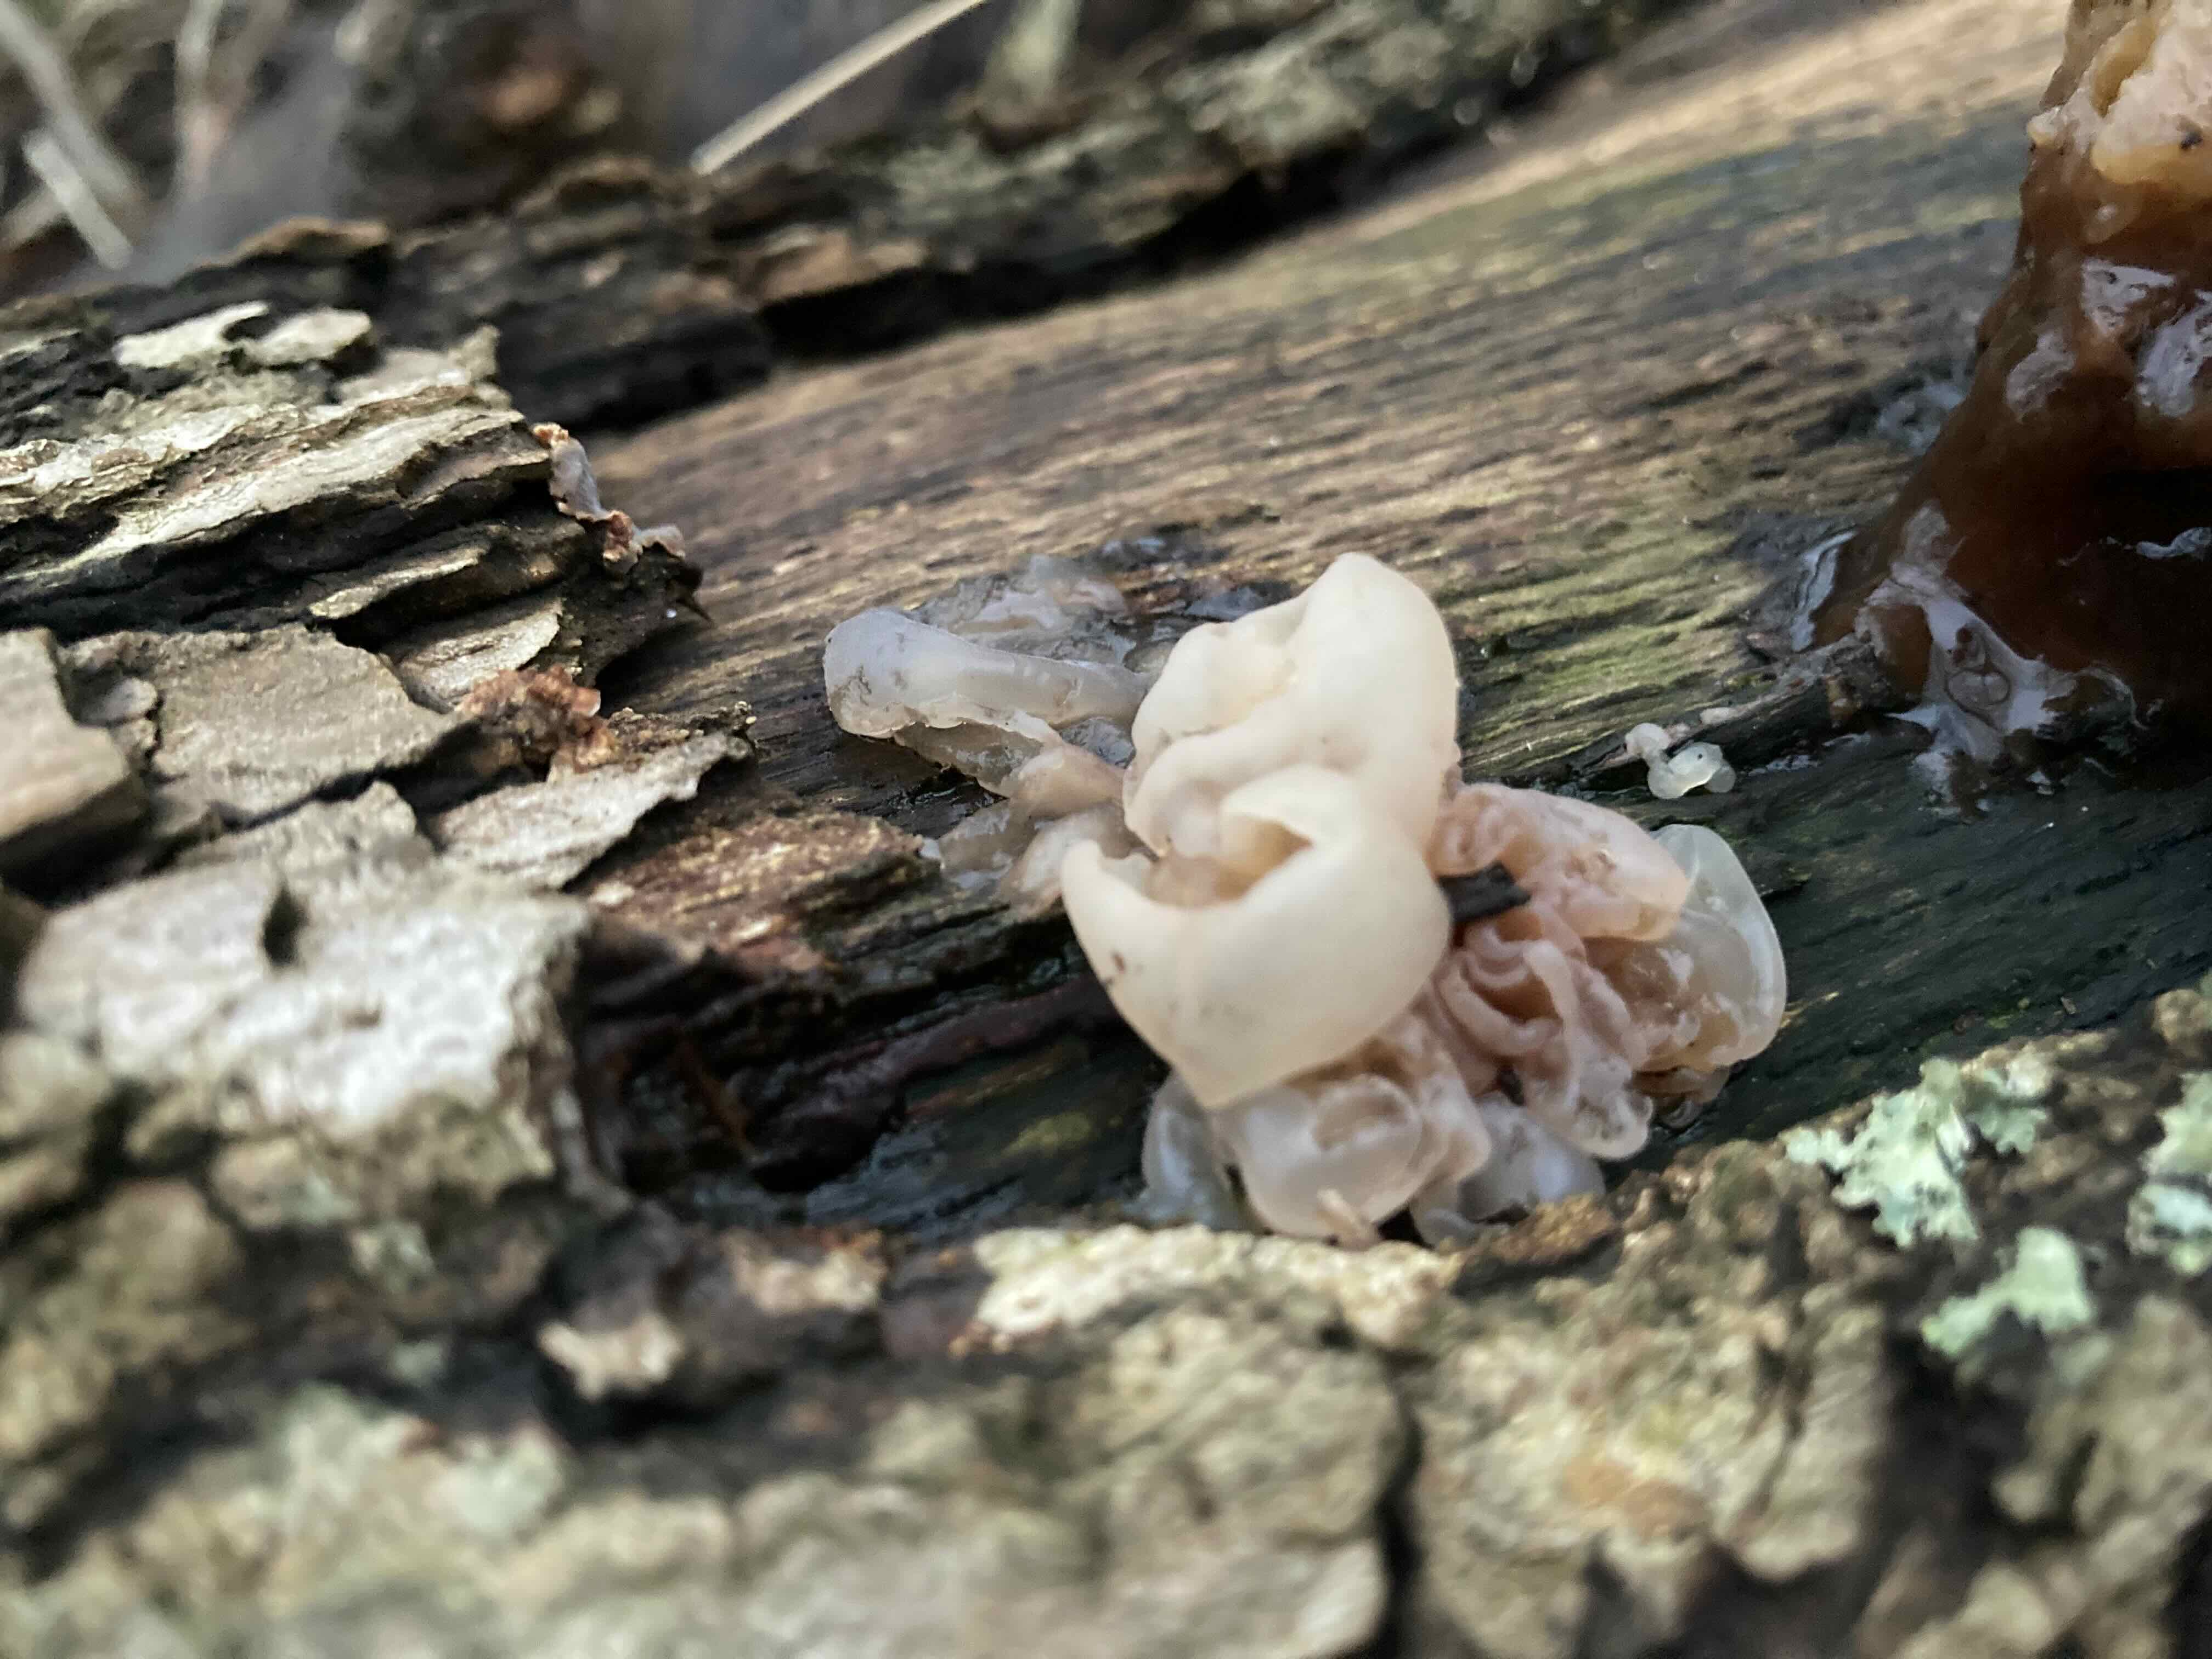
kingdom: Fungi
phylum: Ascomycota
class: Leotiomycetes
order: Helotiales
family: Gelatinodiscaceae
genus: Neobulgaria
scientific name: Neobulgaria pura
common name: bleg bævreskive
